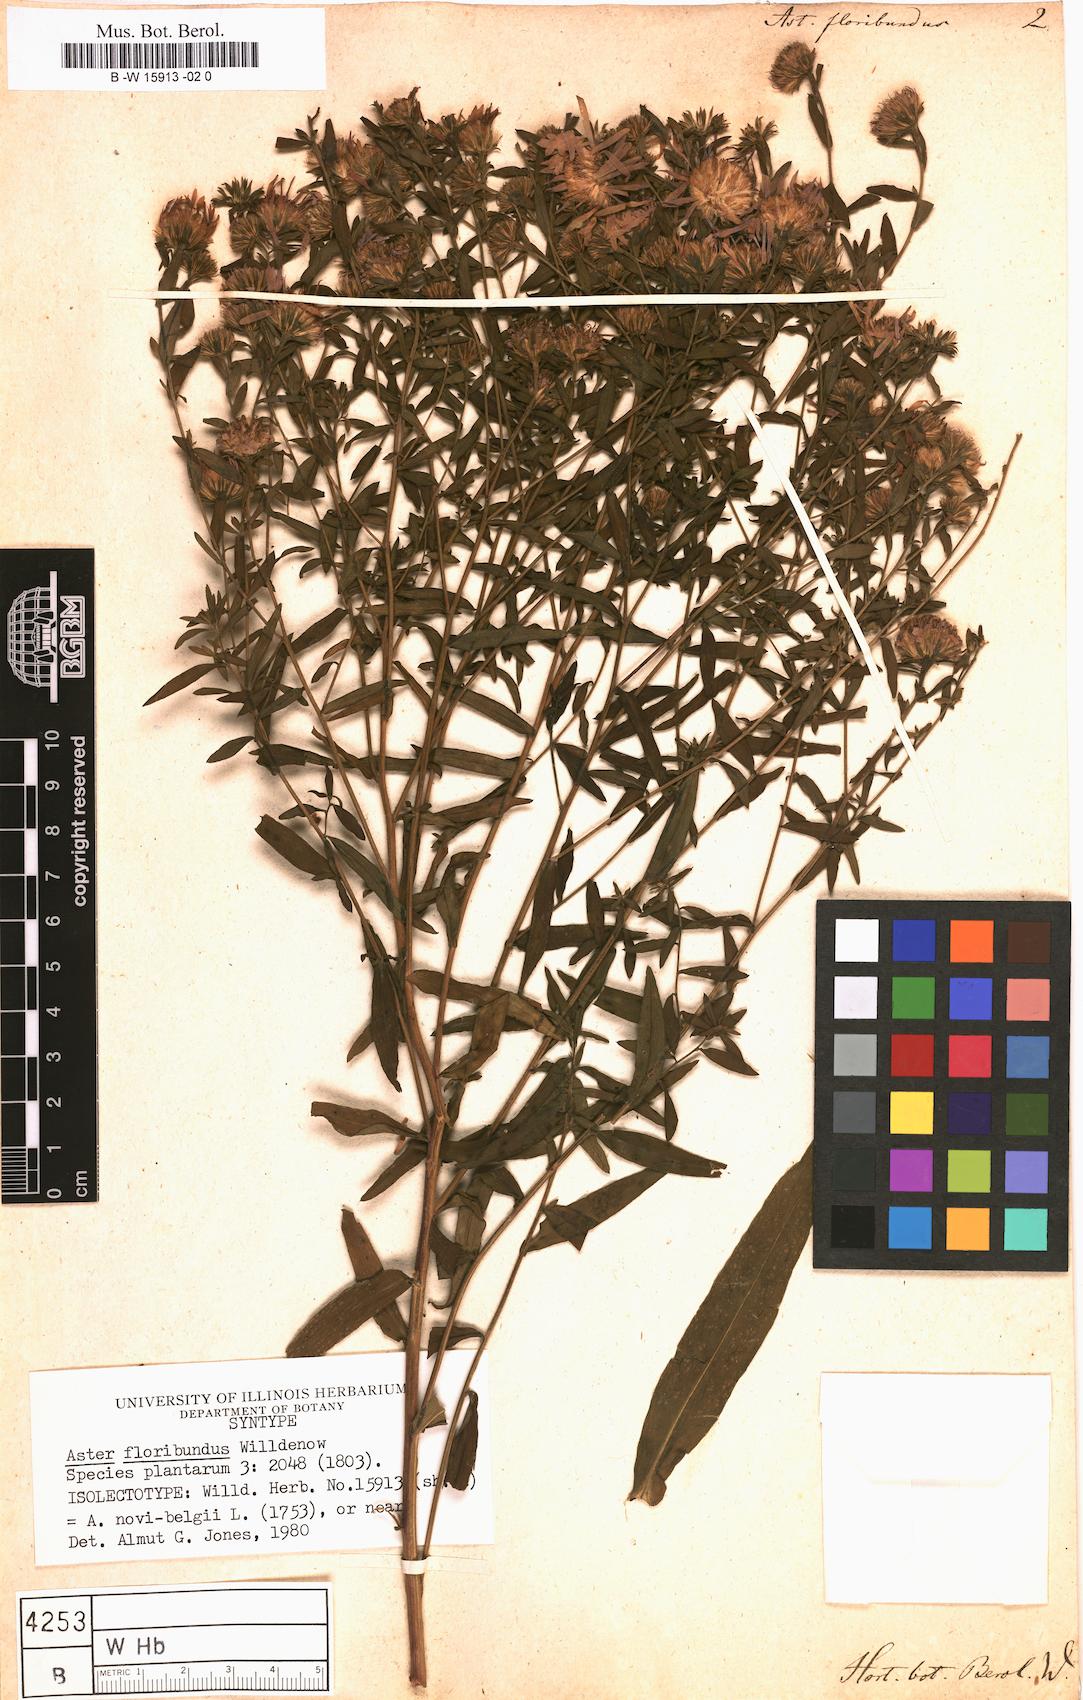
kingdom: Plantae
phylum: Tracheophyta
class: Magnoliopsida
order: Asterales
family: Asteraceae
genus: Aster
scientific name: Aster floribundus
